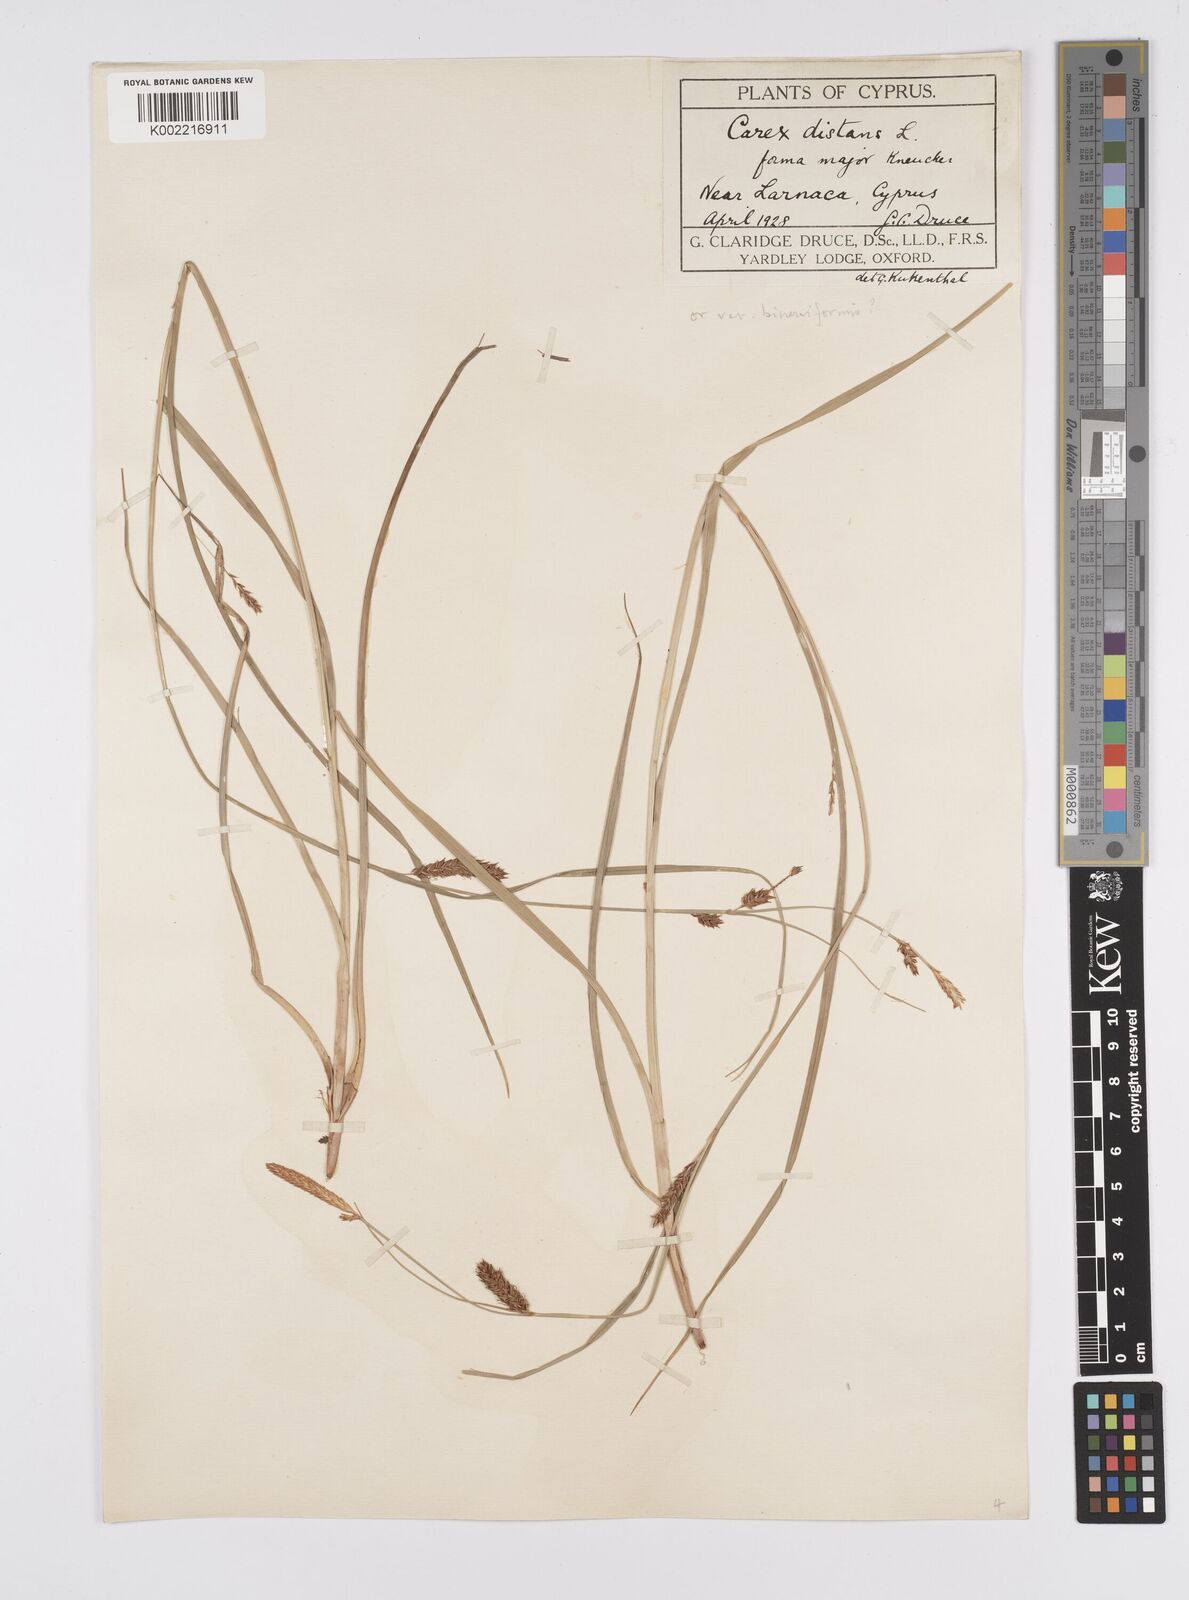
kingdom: Plantae
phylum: Tracheophyta
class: Liliopsida
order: Poales
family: Cyperaceae
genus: Carex
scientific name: Carex distans
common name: Distant sedge
